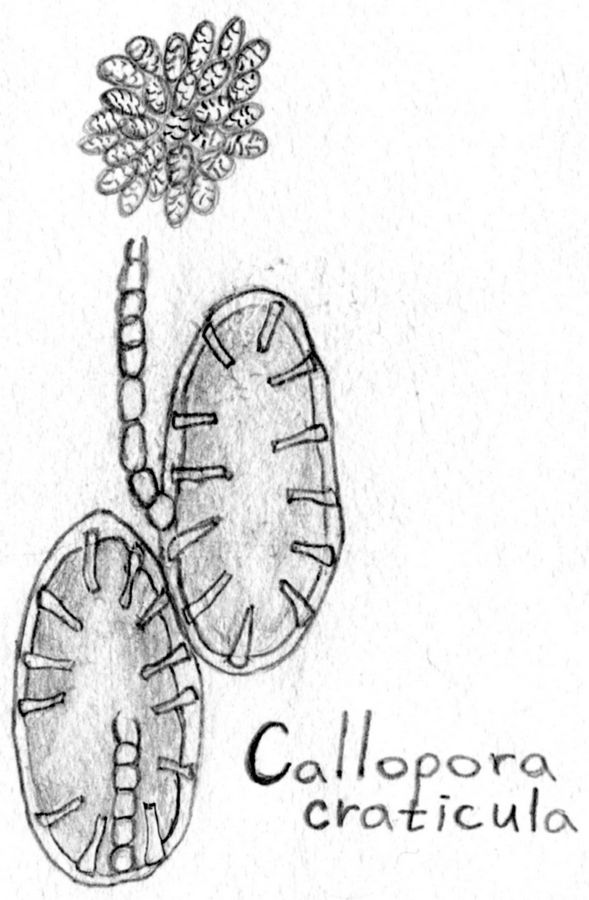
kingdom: Animalia
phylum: Bryozoa
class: Gymnolaemata
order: Cheilostomatida
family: Calloporidae
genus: Callopora
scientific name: Callopora craticula
